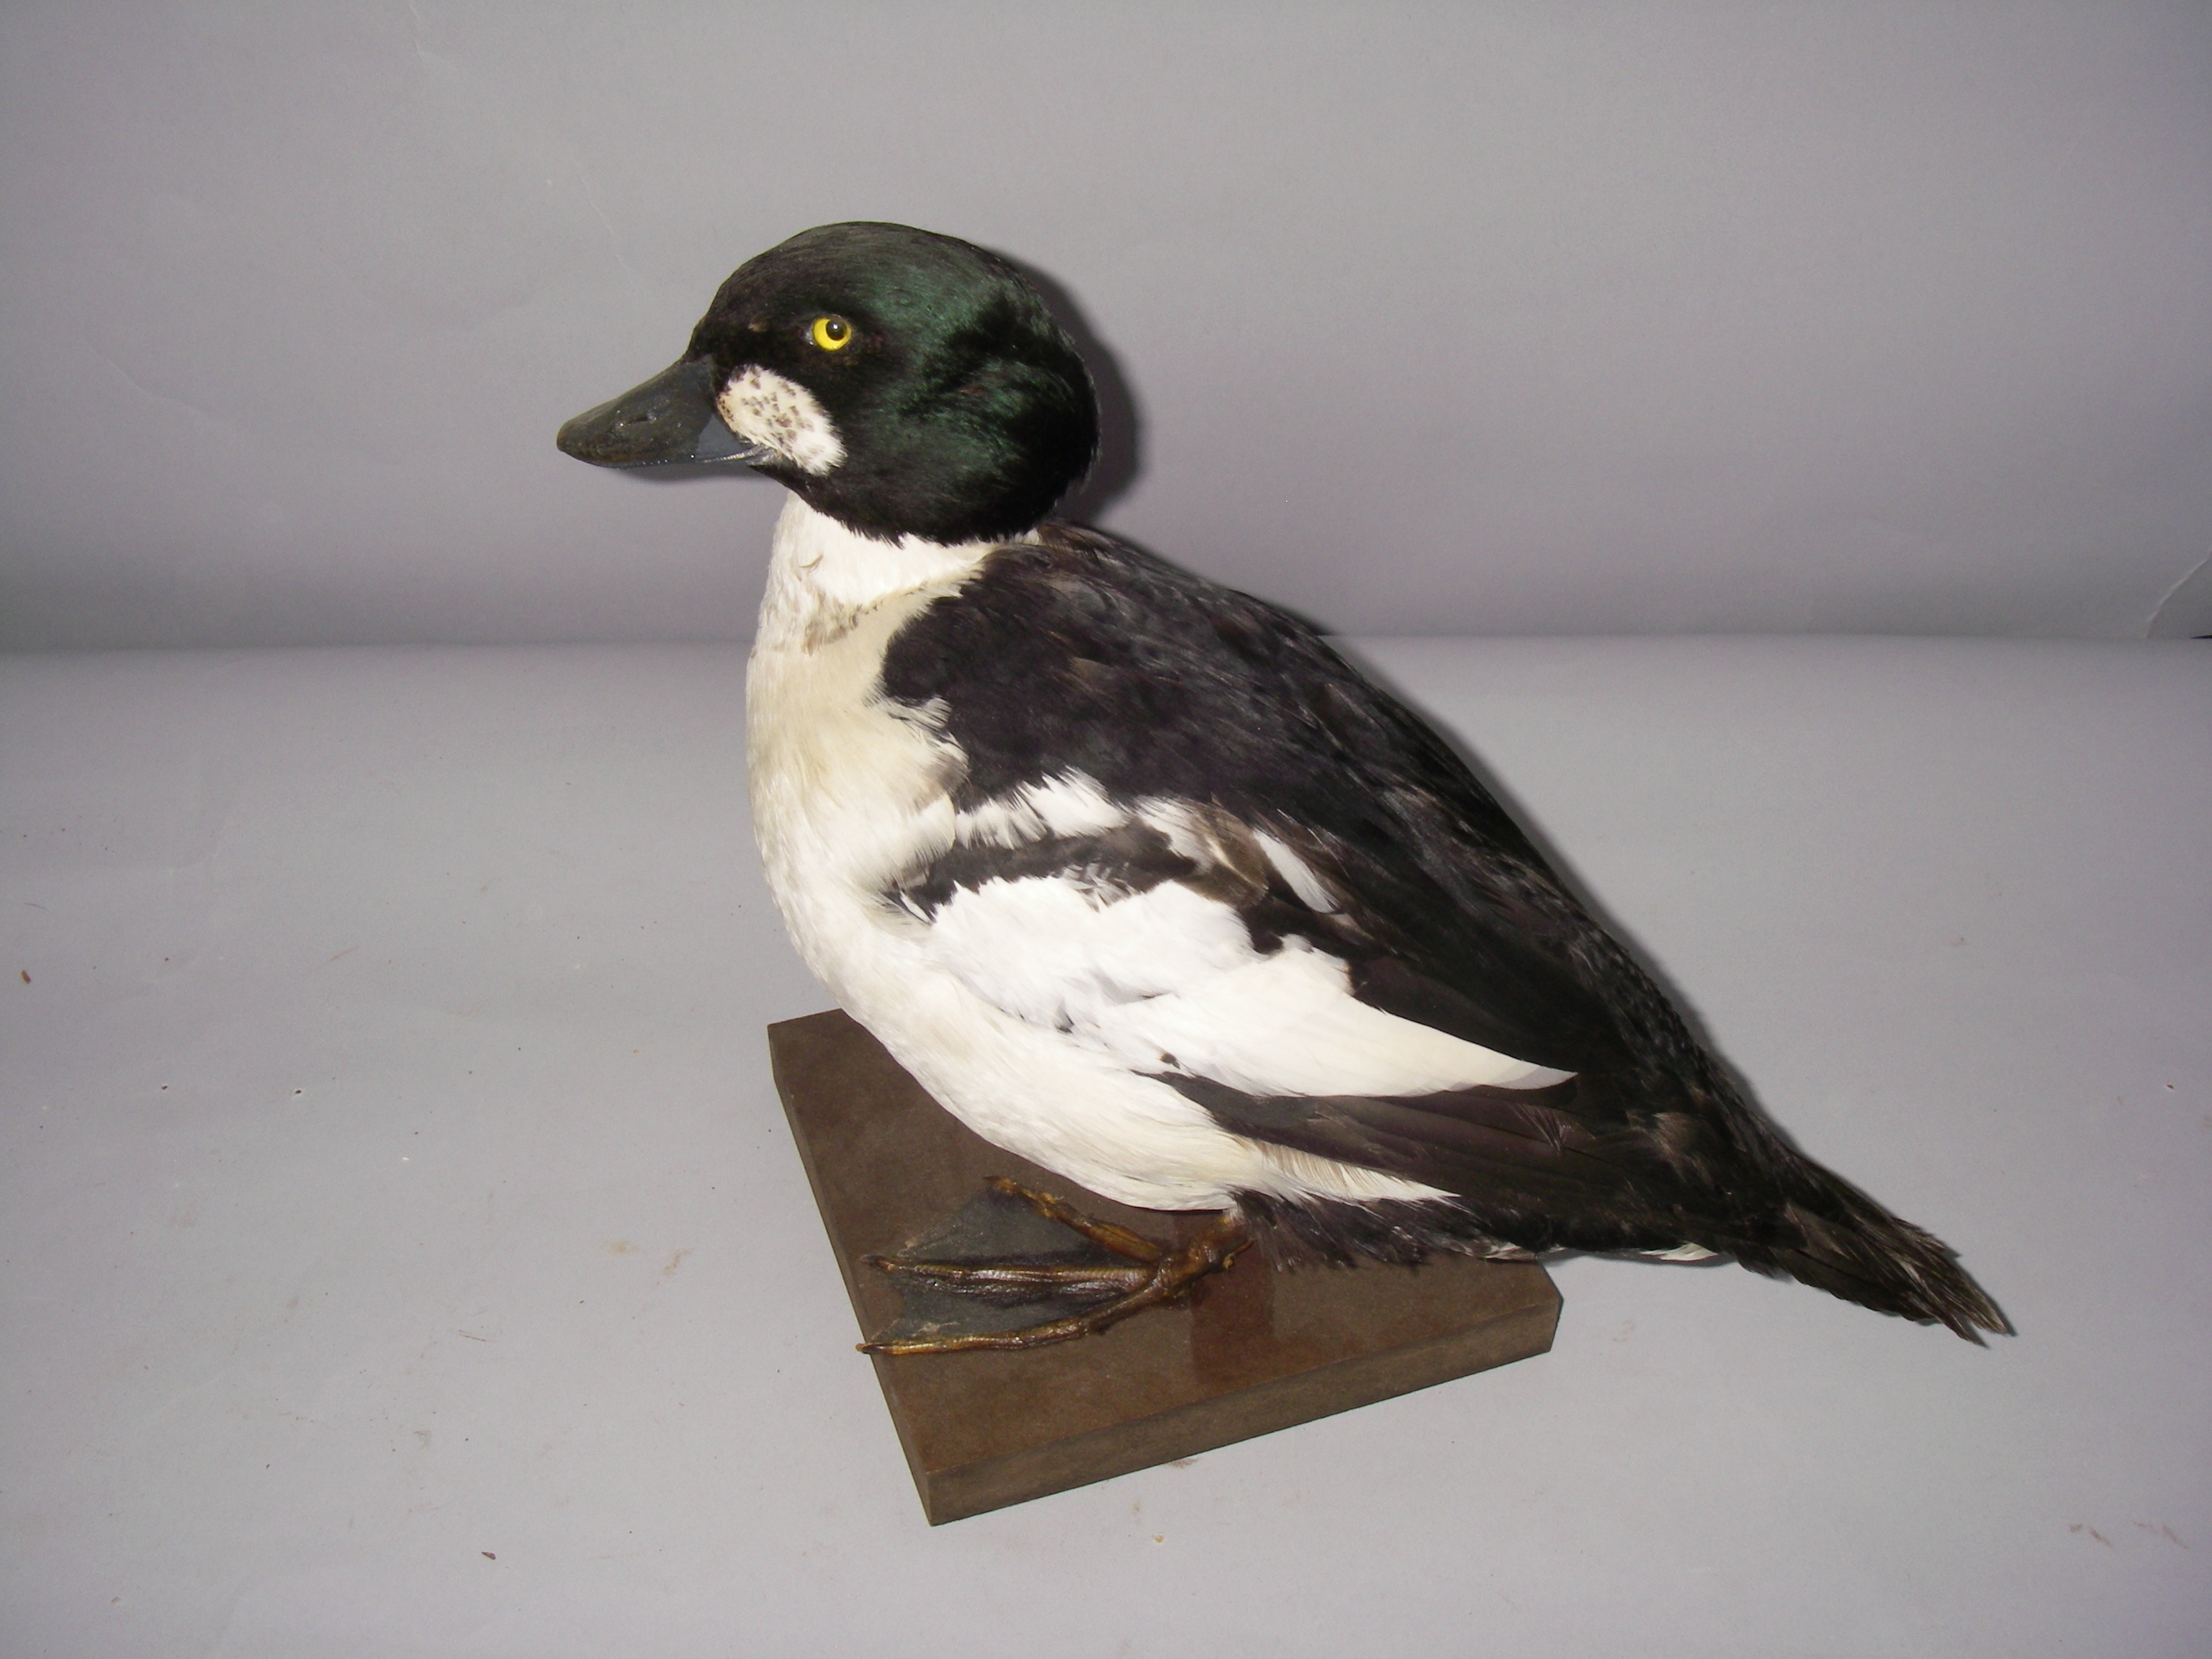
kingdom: Animalia
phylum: Chordata
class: Aves
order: Anseriformes
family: Anatidae
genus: Bucephala
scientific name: Bucephala clangula
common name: Common goldeneye
